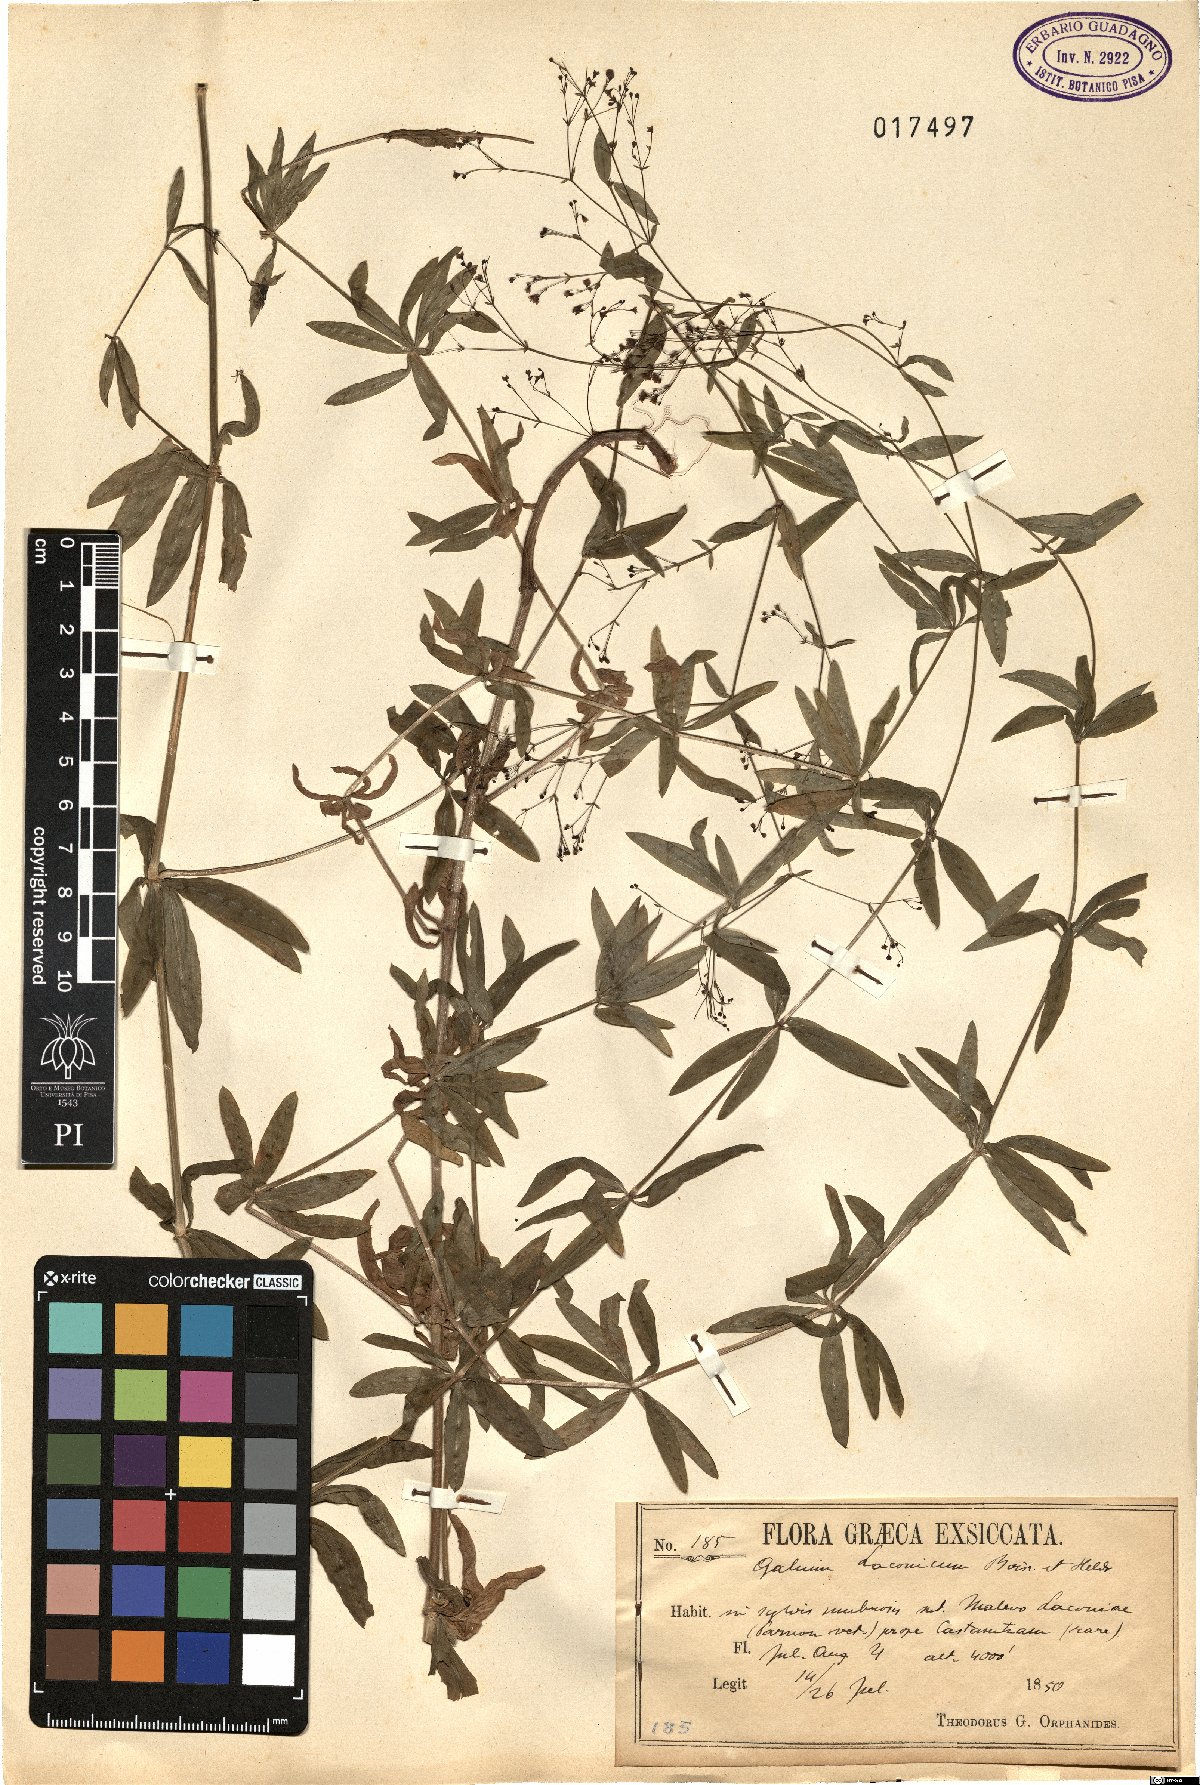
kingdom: Plantae
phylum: Tracheophyta
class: Magnoliopsida
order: Gentianales
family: Rubiaceae
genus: Galium
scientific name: Galium laconicum
